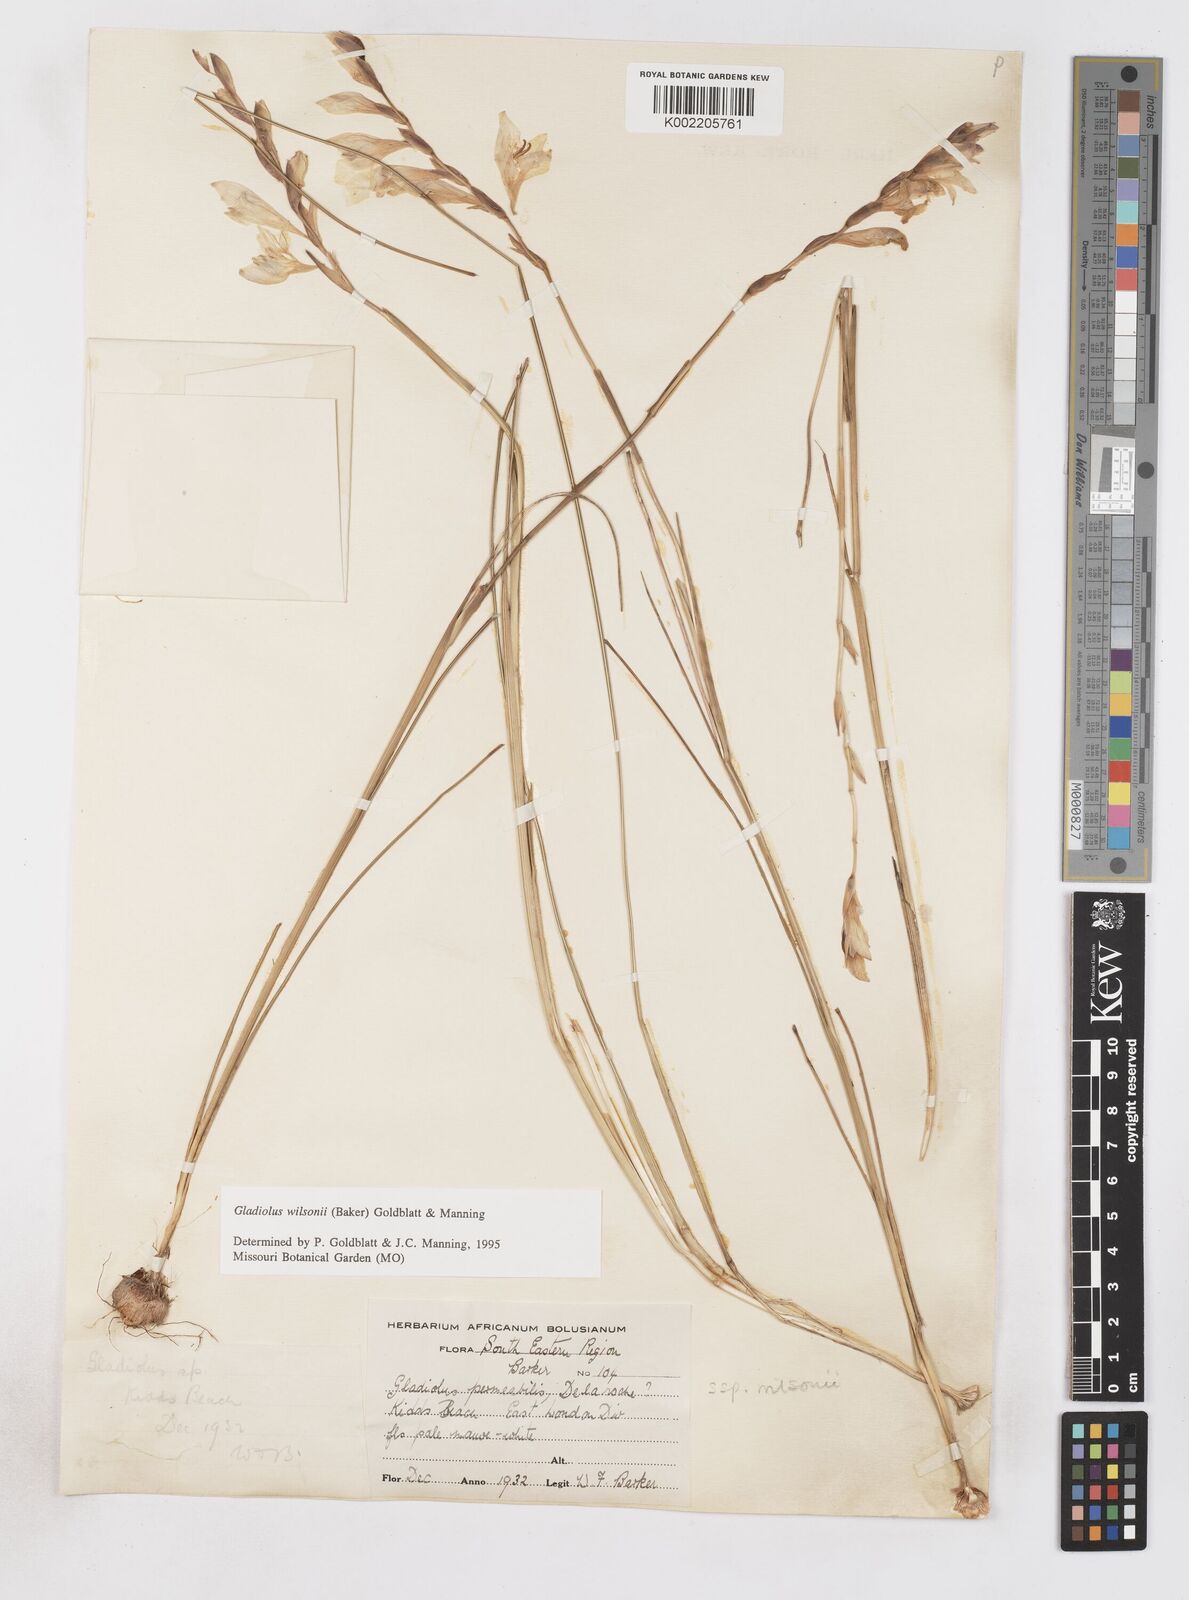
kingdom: Plantae
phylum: Tracheophyta
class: Liliopsida
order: Asparagales
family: Iridaceae
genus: Gladiolus
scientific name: Gladiolus wilsonii
